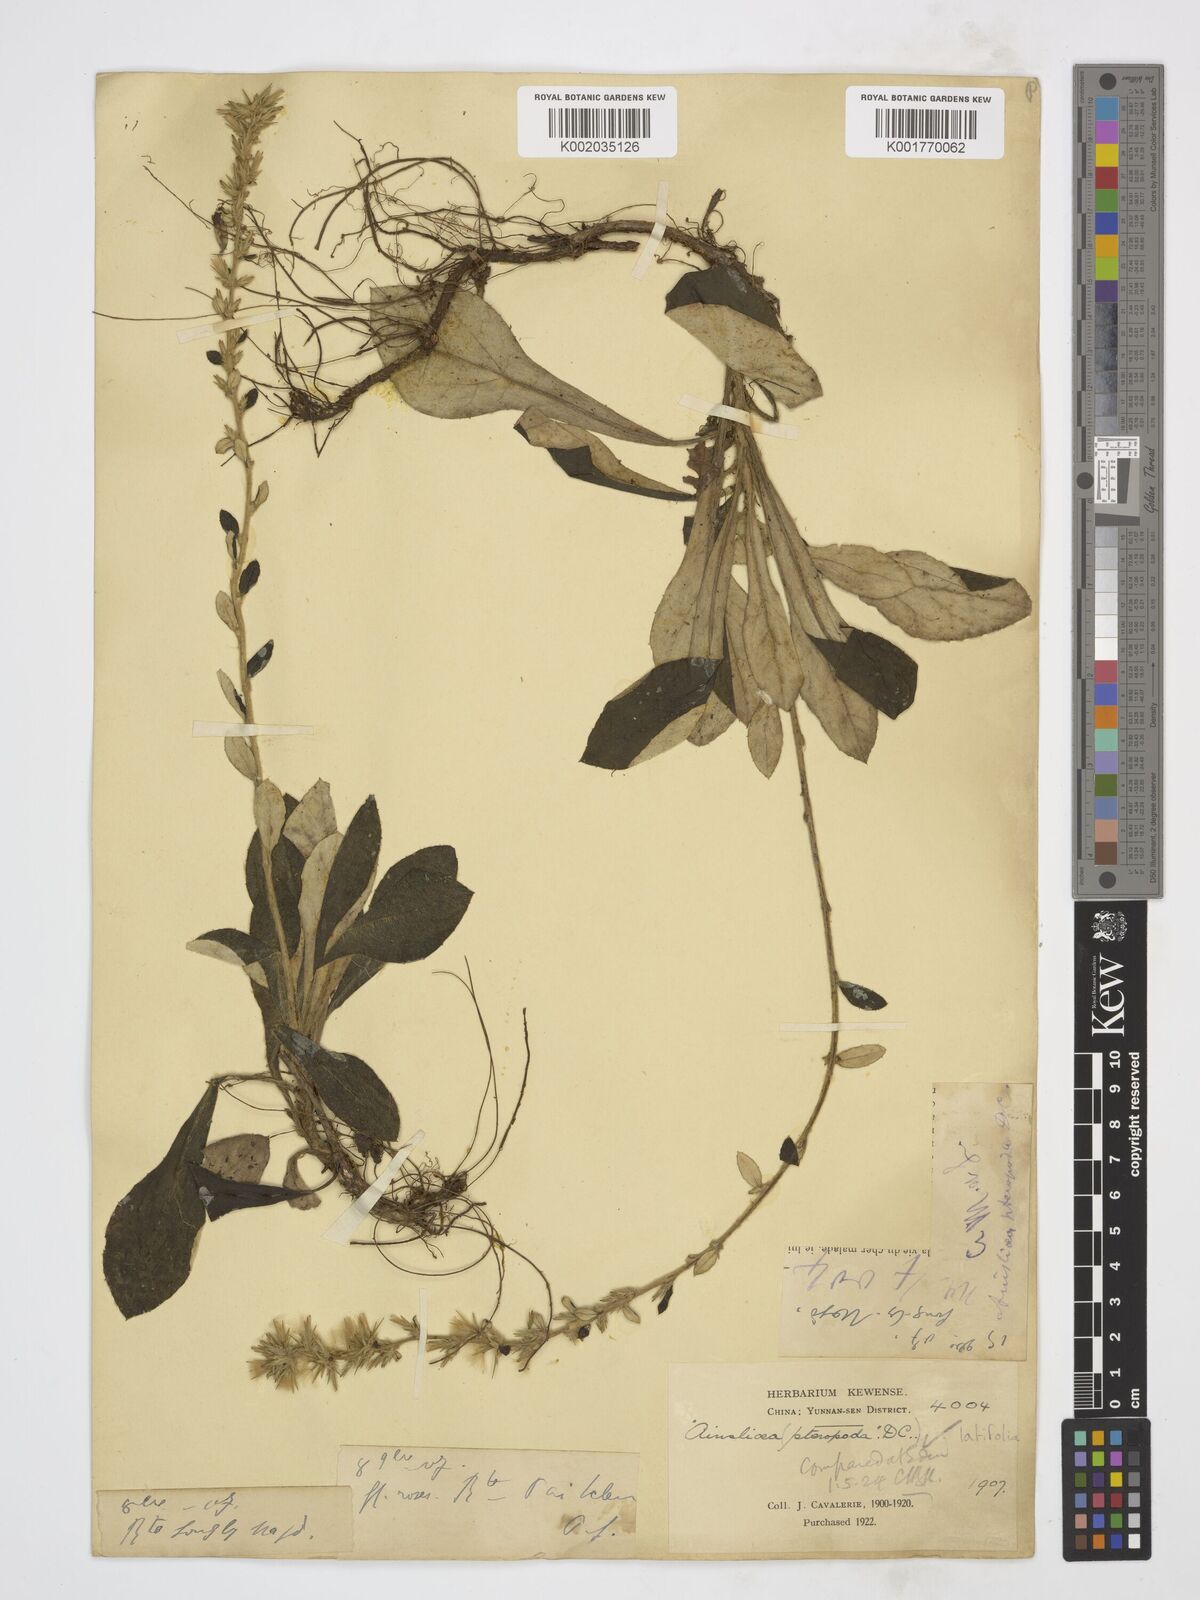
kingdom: Plantae
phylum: Tracheophyta
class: Magnoliopsida
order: Asterales
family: Asteraceae
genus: Ainsliaea
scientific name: Ainsliaea latifolia
